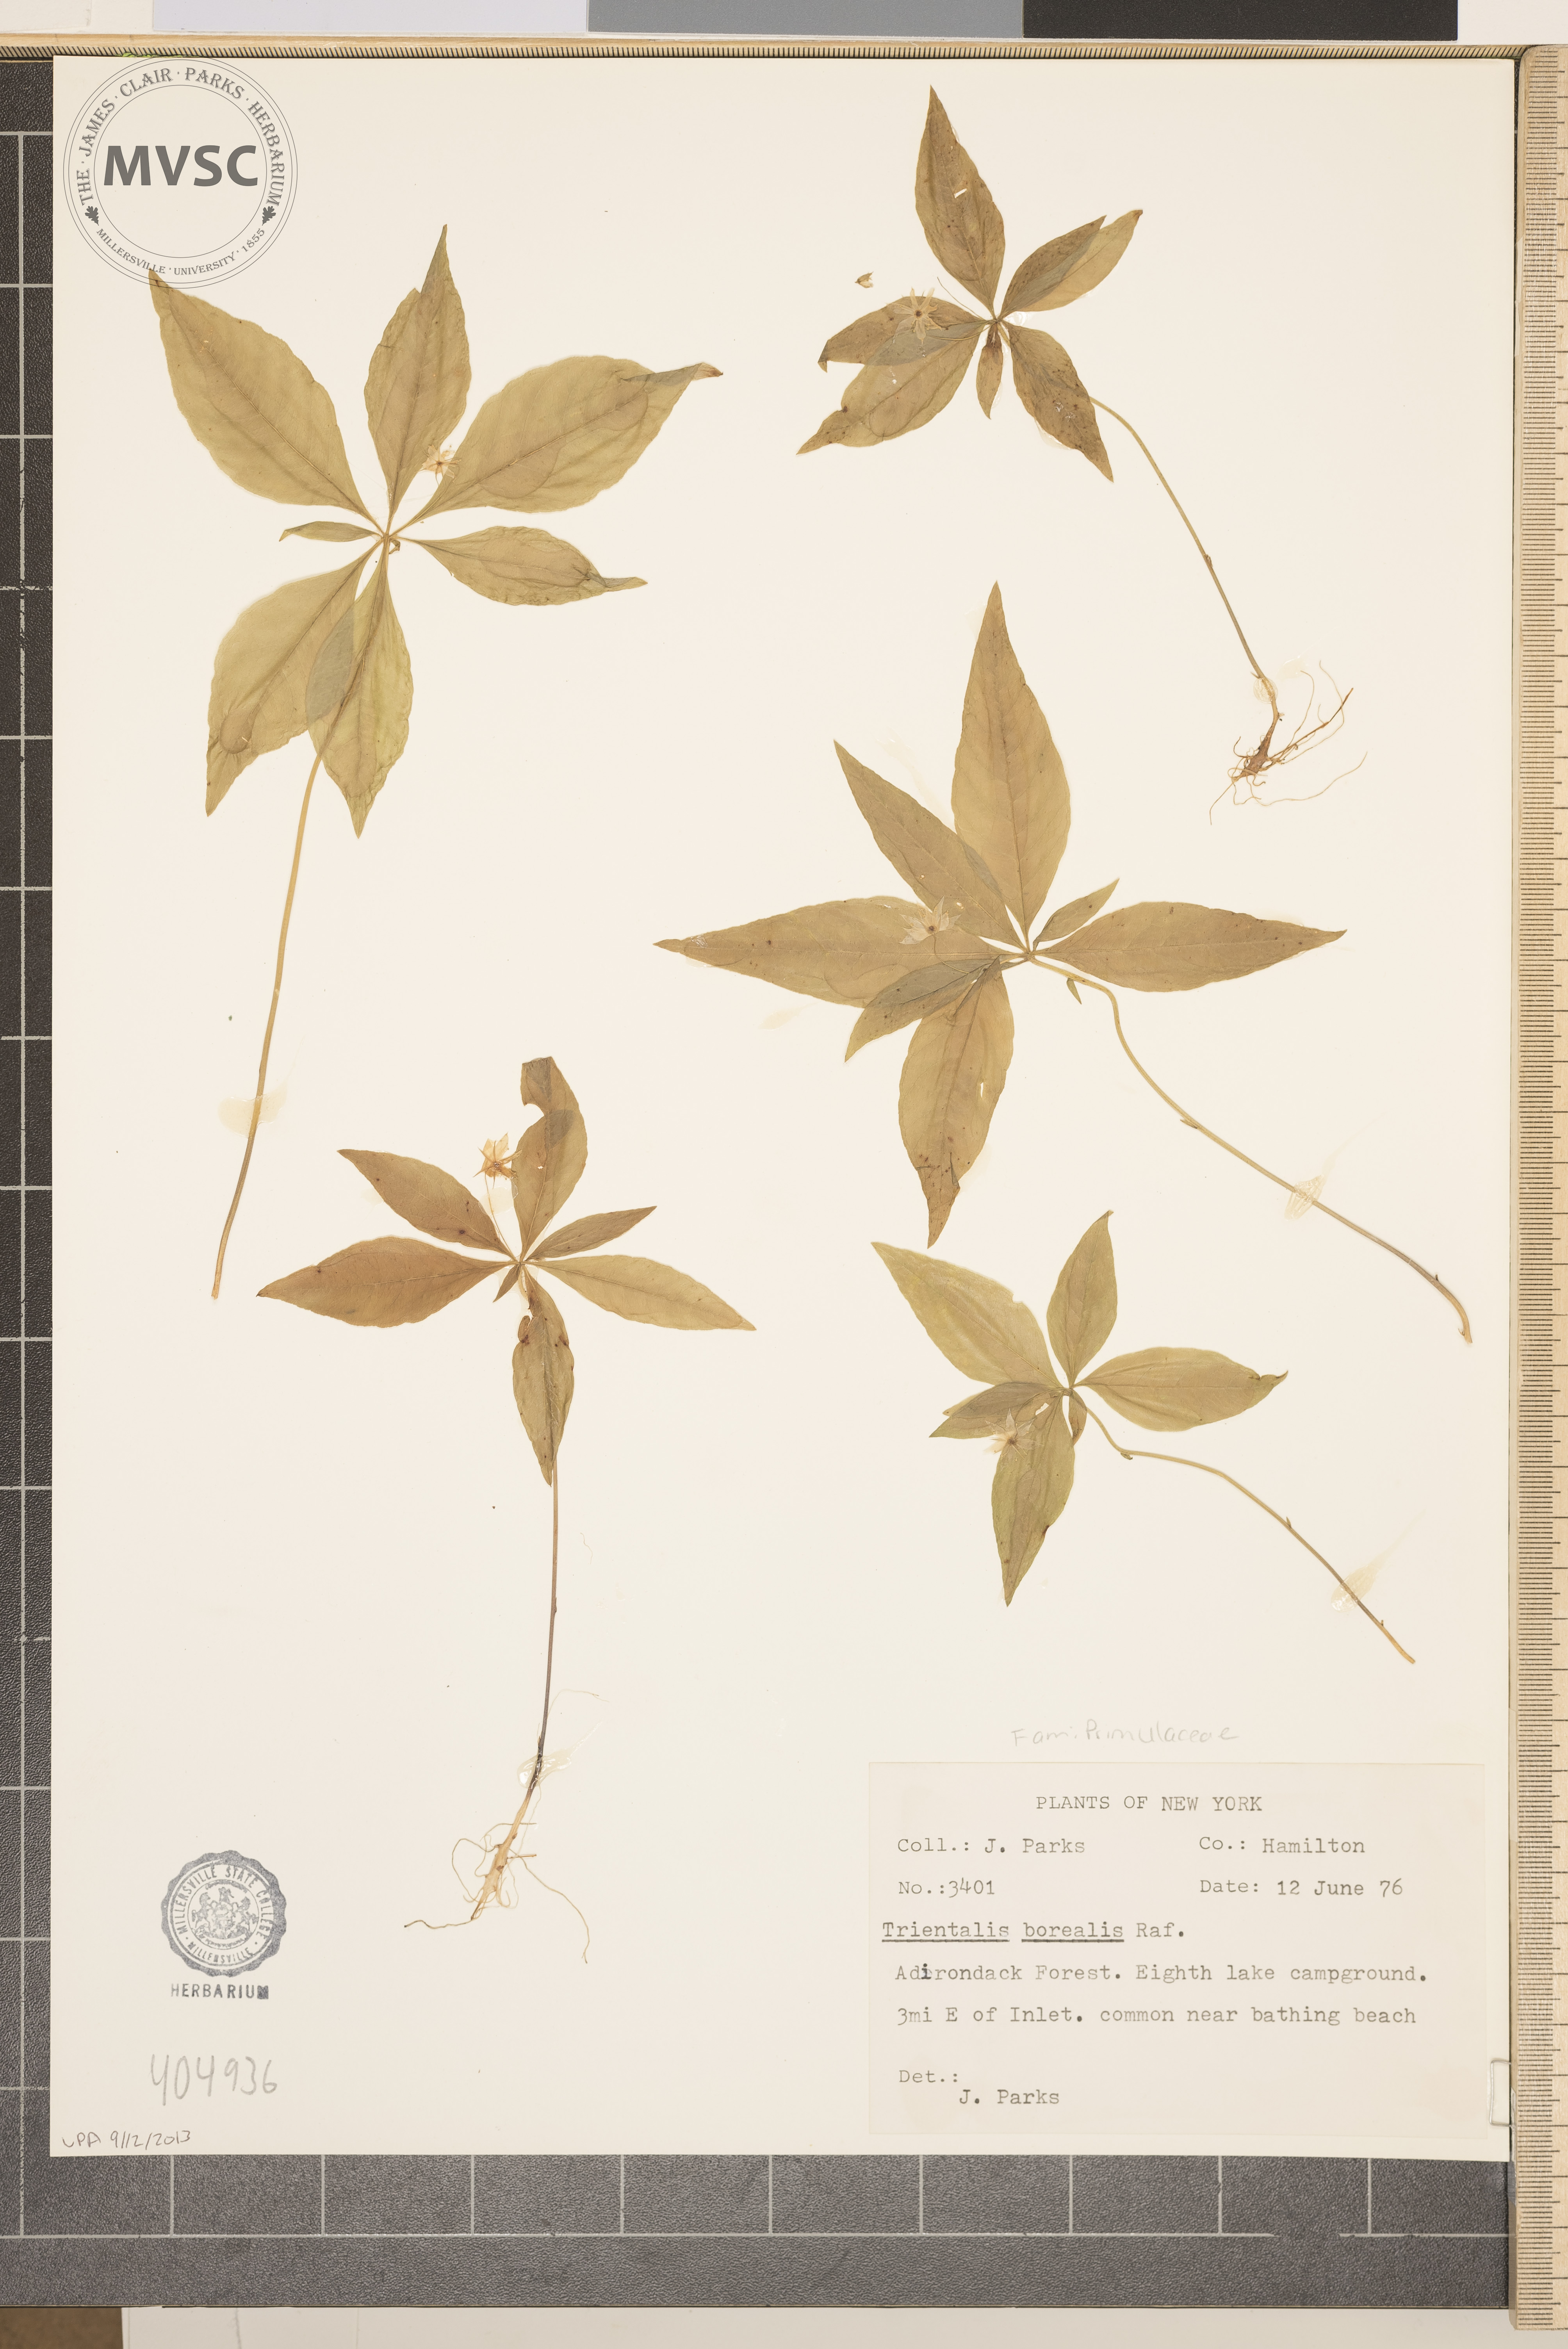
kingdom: Plantae
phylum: Tracheophyta
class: Magnoliopsida
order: Ericales
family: Primulaceae
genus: Lysimachia
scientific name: Lysimachia borealis
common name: American starflower
